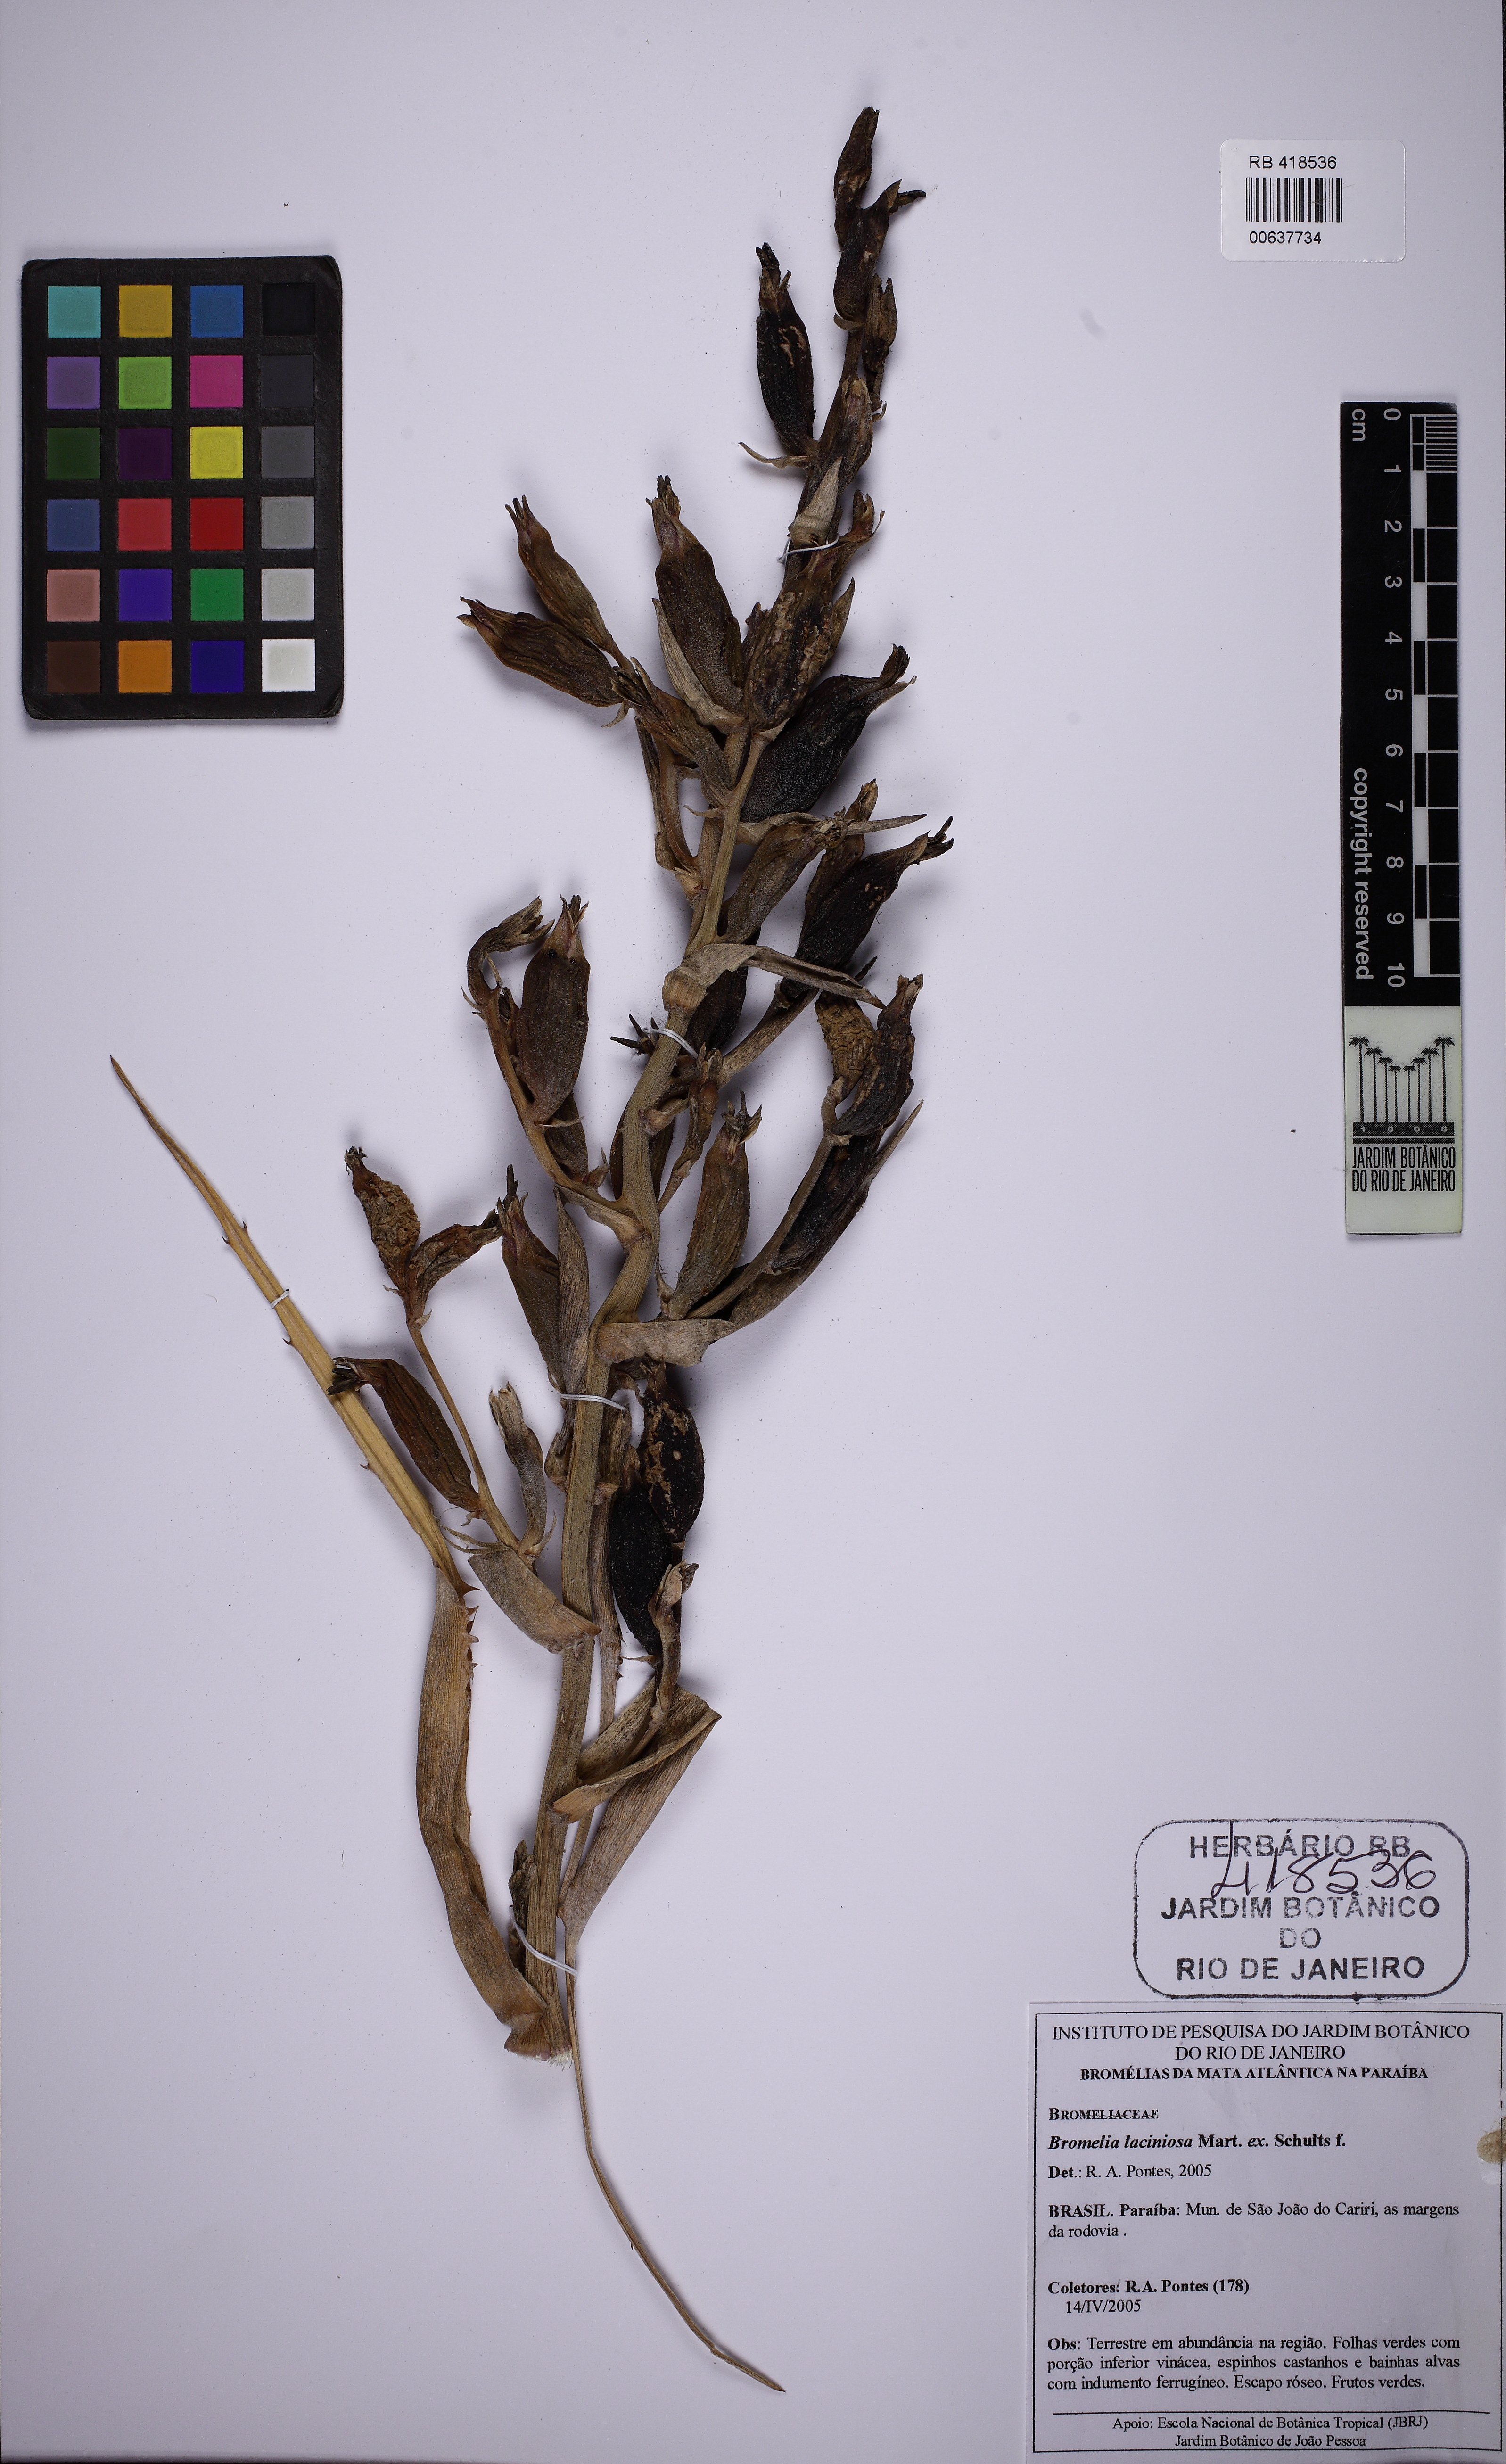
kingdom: Plantae
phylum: Tracheophyta
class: Liliopsida
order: Poales
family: Bromeliaceae
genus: Bromelia
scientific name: Bromelia laciniosa
